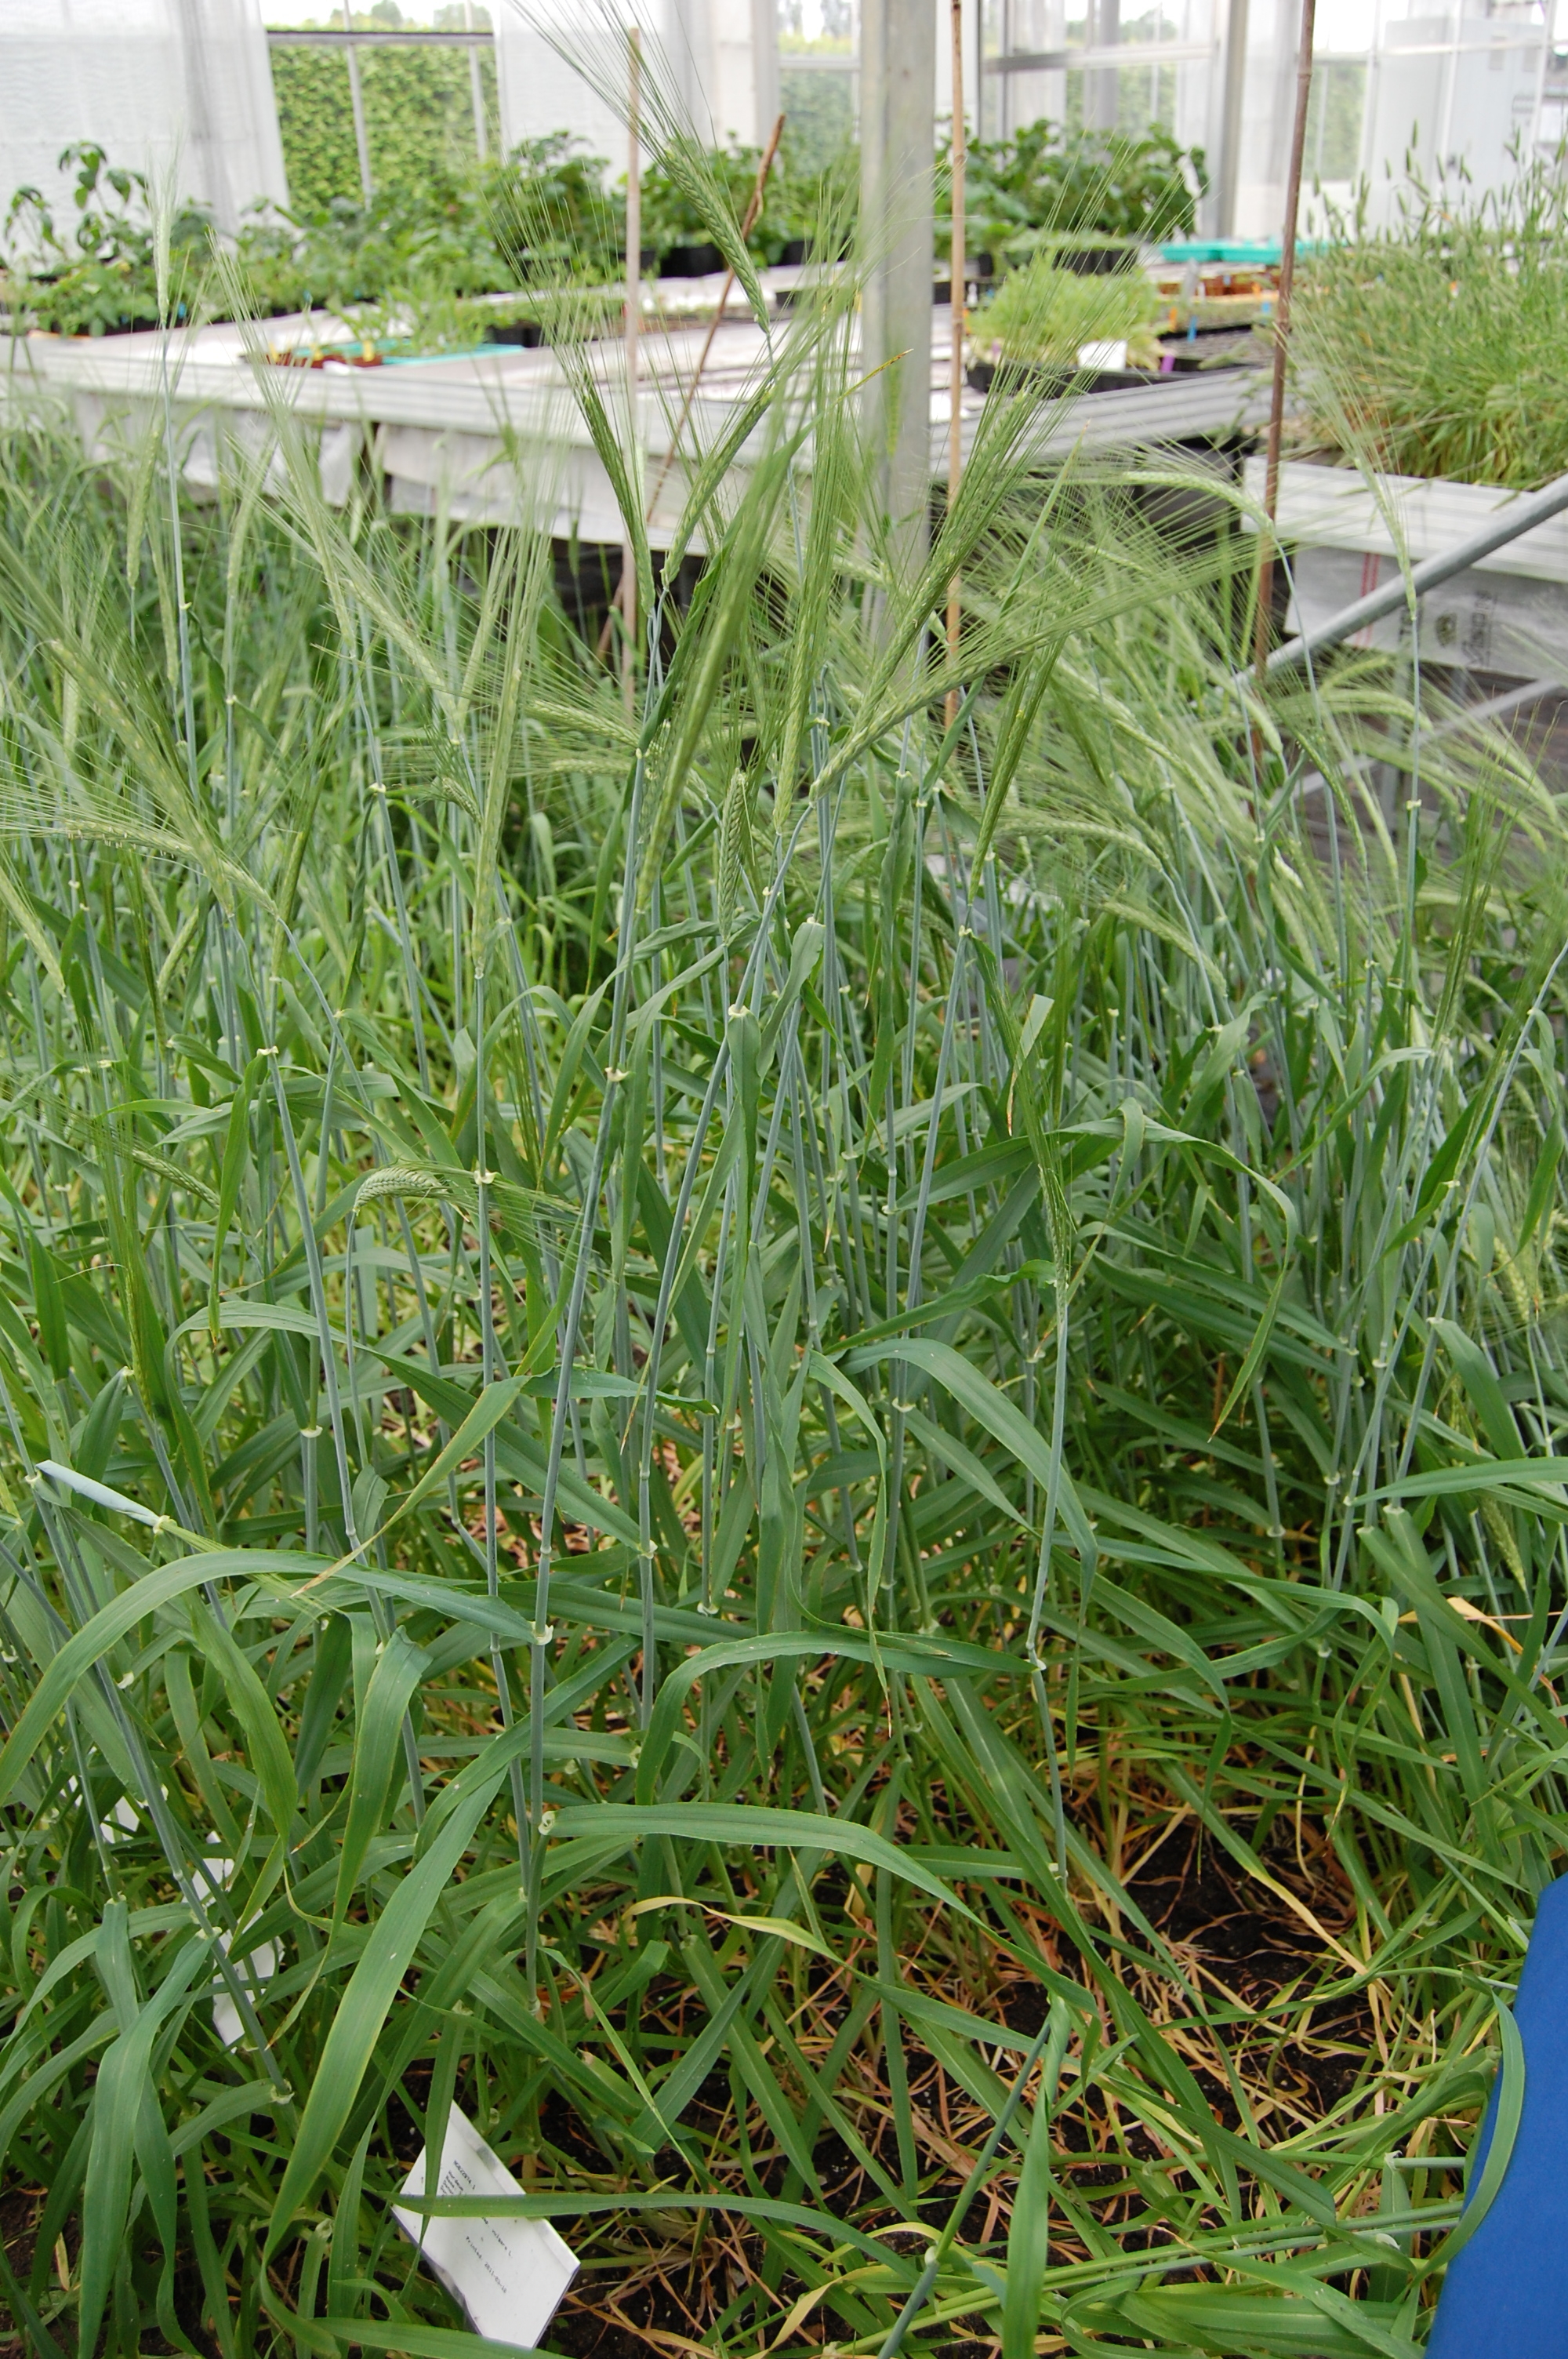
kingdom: Plantae
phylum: Tracheophyta
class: Liliopsida
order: Poales
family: Poaceae
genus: Hordeum
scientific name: Hordeum vulgare
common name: Common barley
